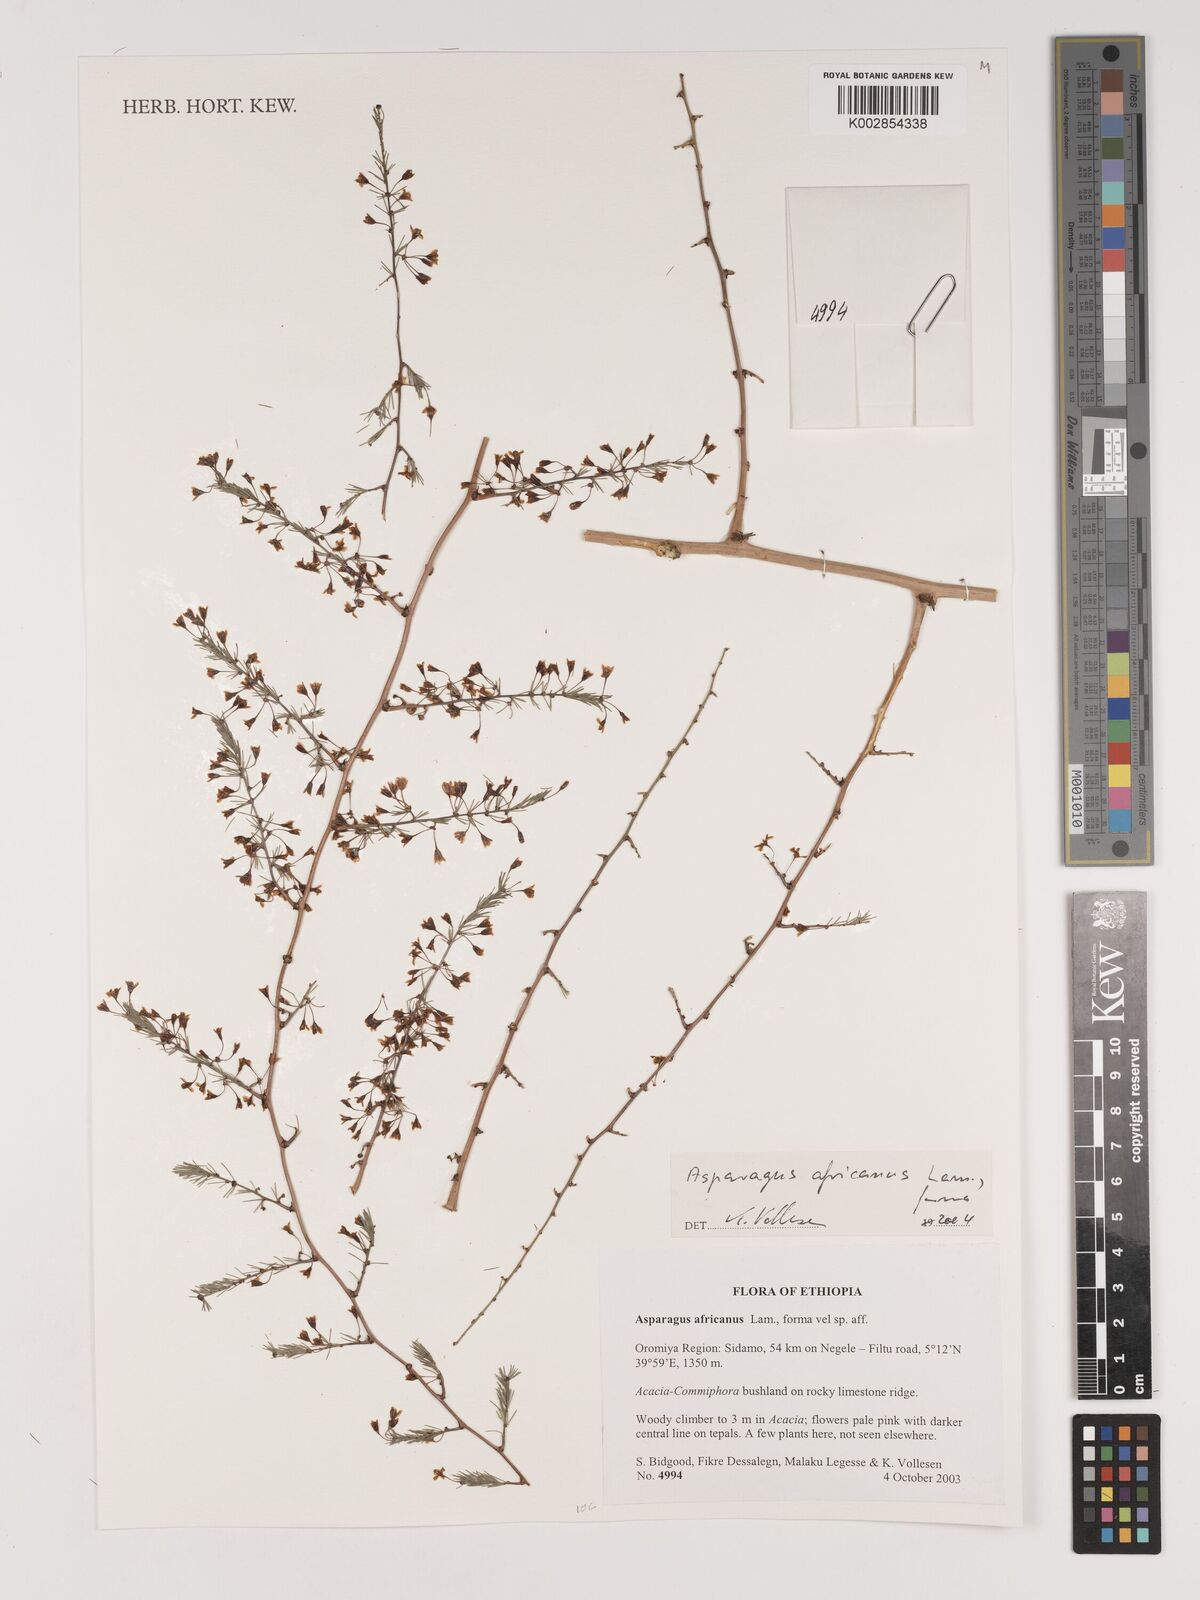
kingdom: Plantae
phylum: Tracheophyta
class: Liliopsida
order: Asparagales
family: Asparagaceae
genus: Asparagus
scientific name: Asparagus africanus
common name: Asparagus-fern
